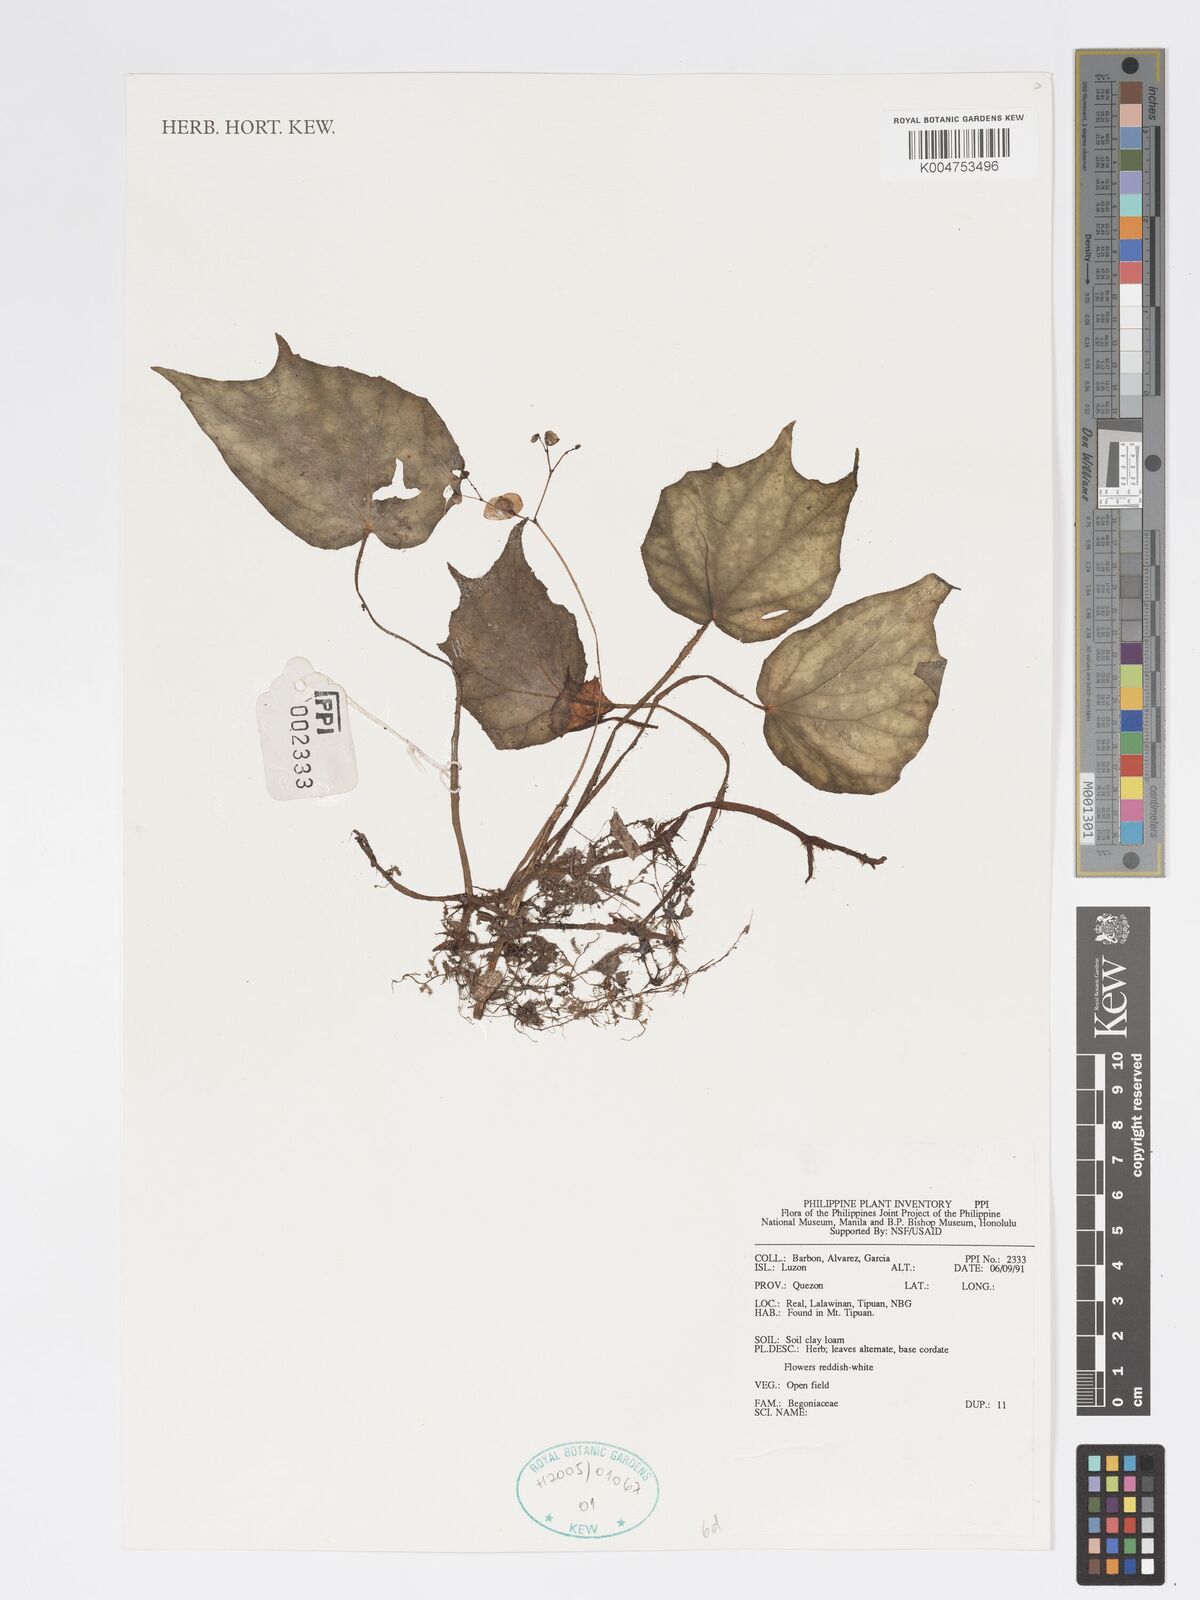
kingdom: Plantae
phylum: Tracheophyta
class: Magnoliopsida
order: Cucurbitales
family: Begoniaceae
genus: Begonia
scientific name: Begonia
